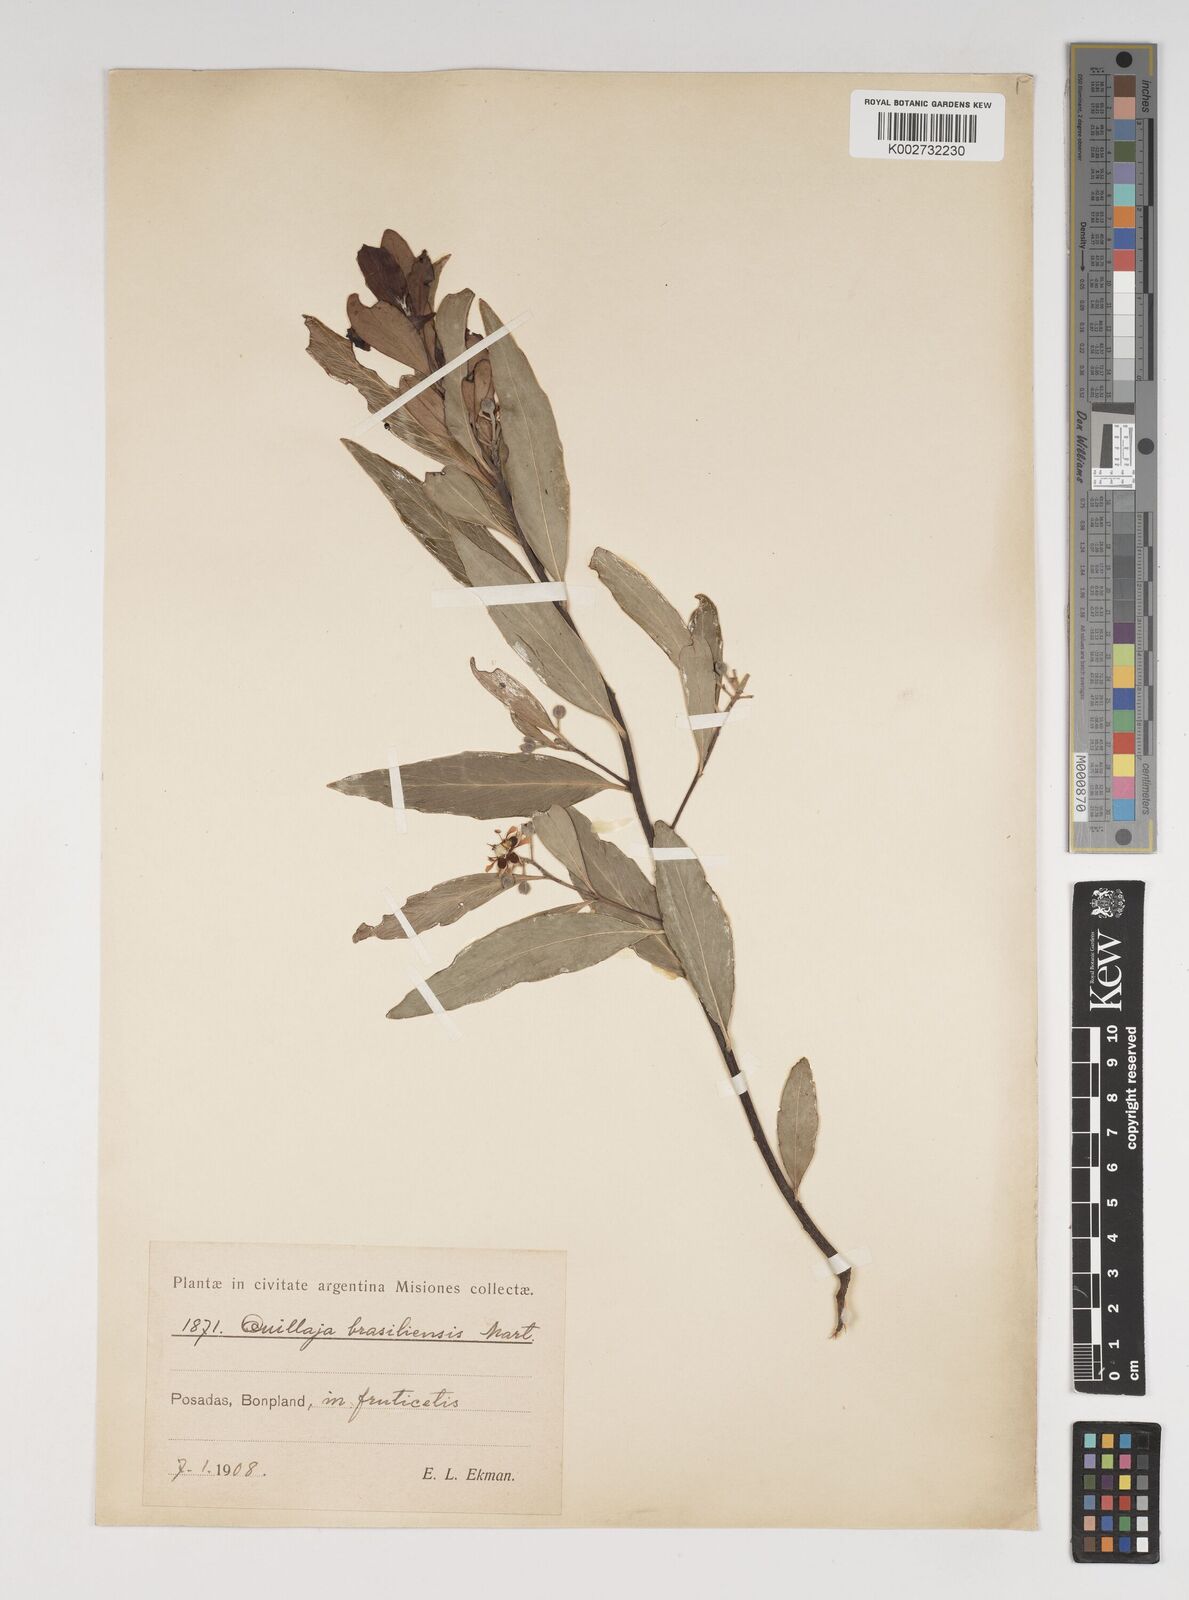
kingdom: Plantae
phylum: Tracheophyta
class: Magnoliopsida
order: Fabales
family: Quillajaceae
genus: Quillaja
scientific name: Quillaja brasiliensis
